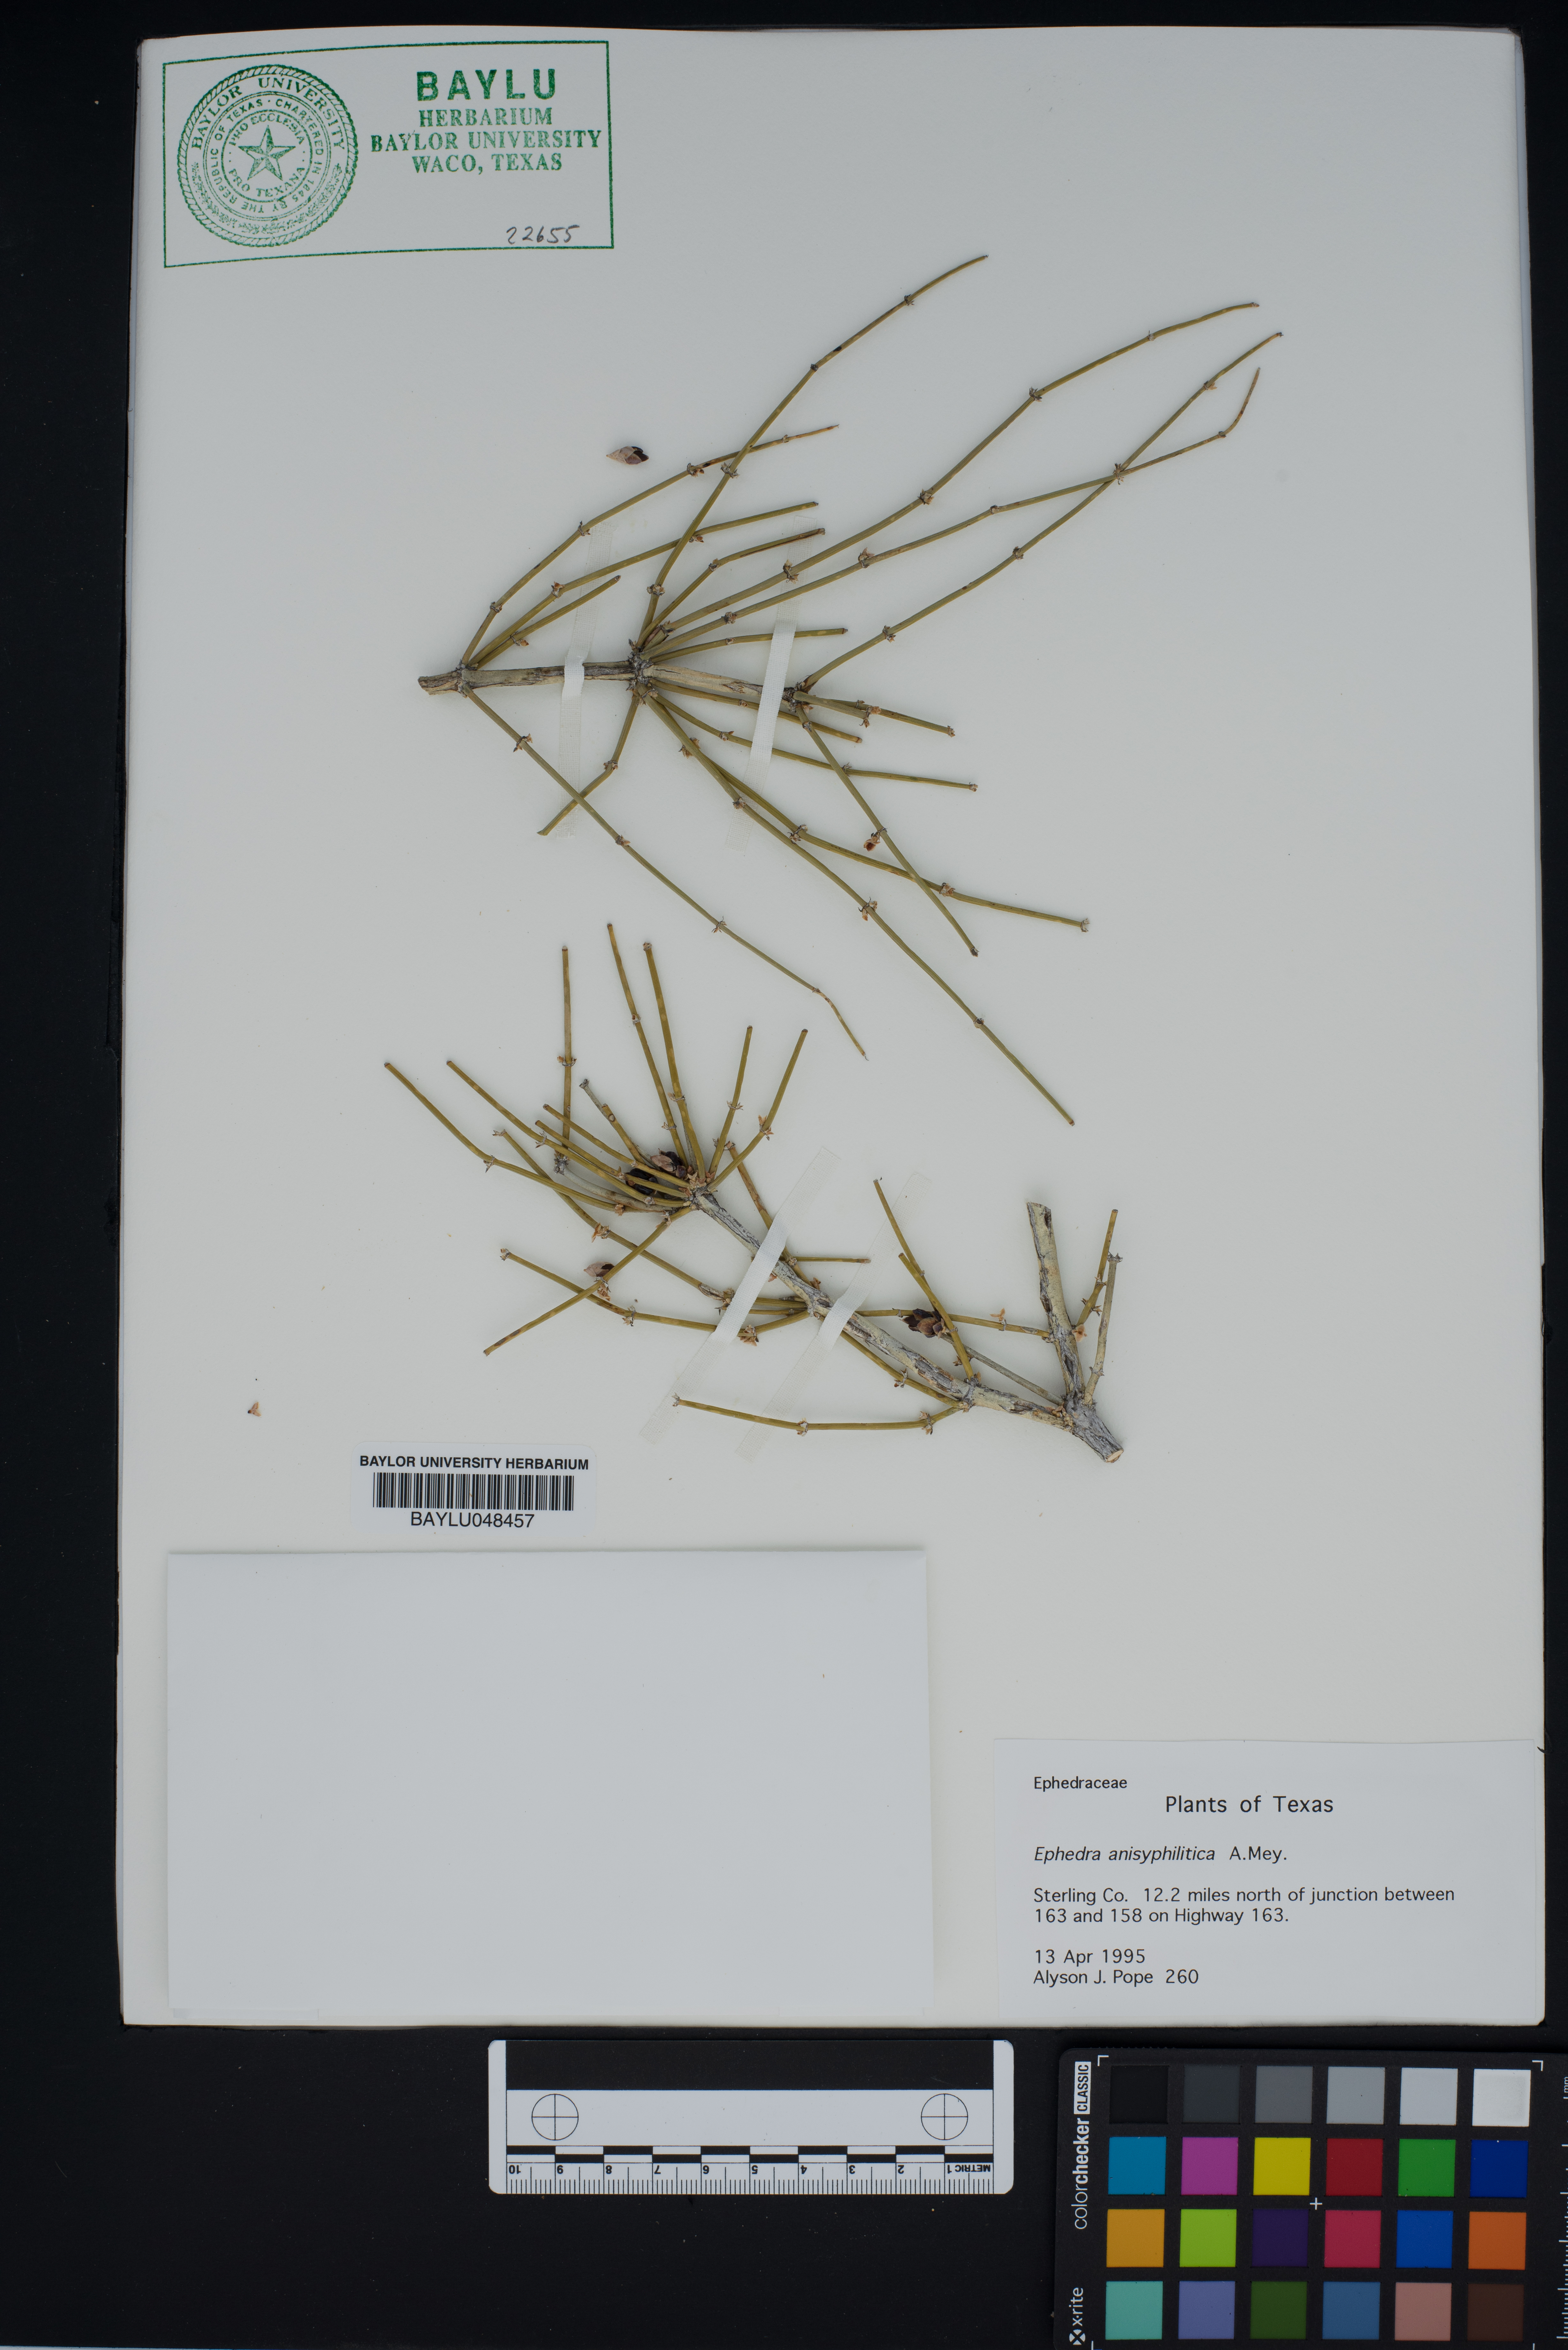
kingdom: Plantae
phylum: Tracheophyta
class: Gnetopsida
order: Ephedrales
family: Ephedraceae
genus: Ephedra
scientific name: Ephedra
